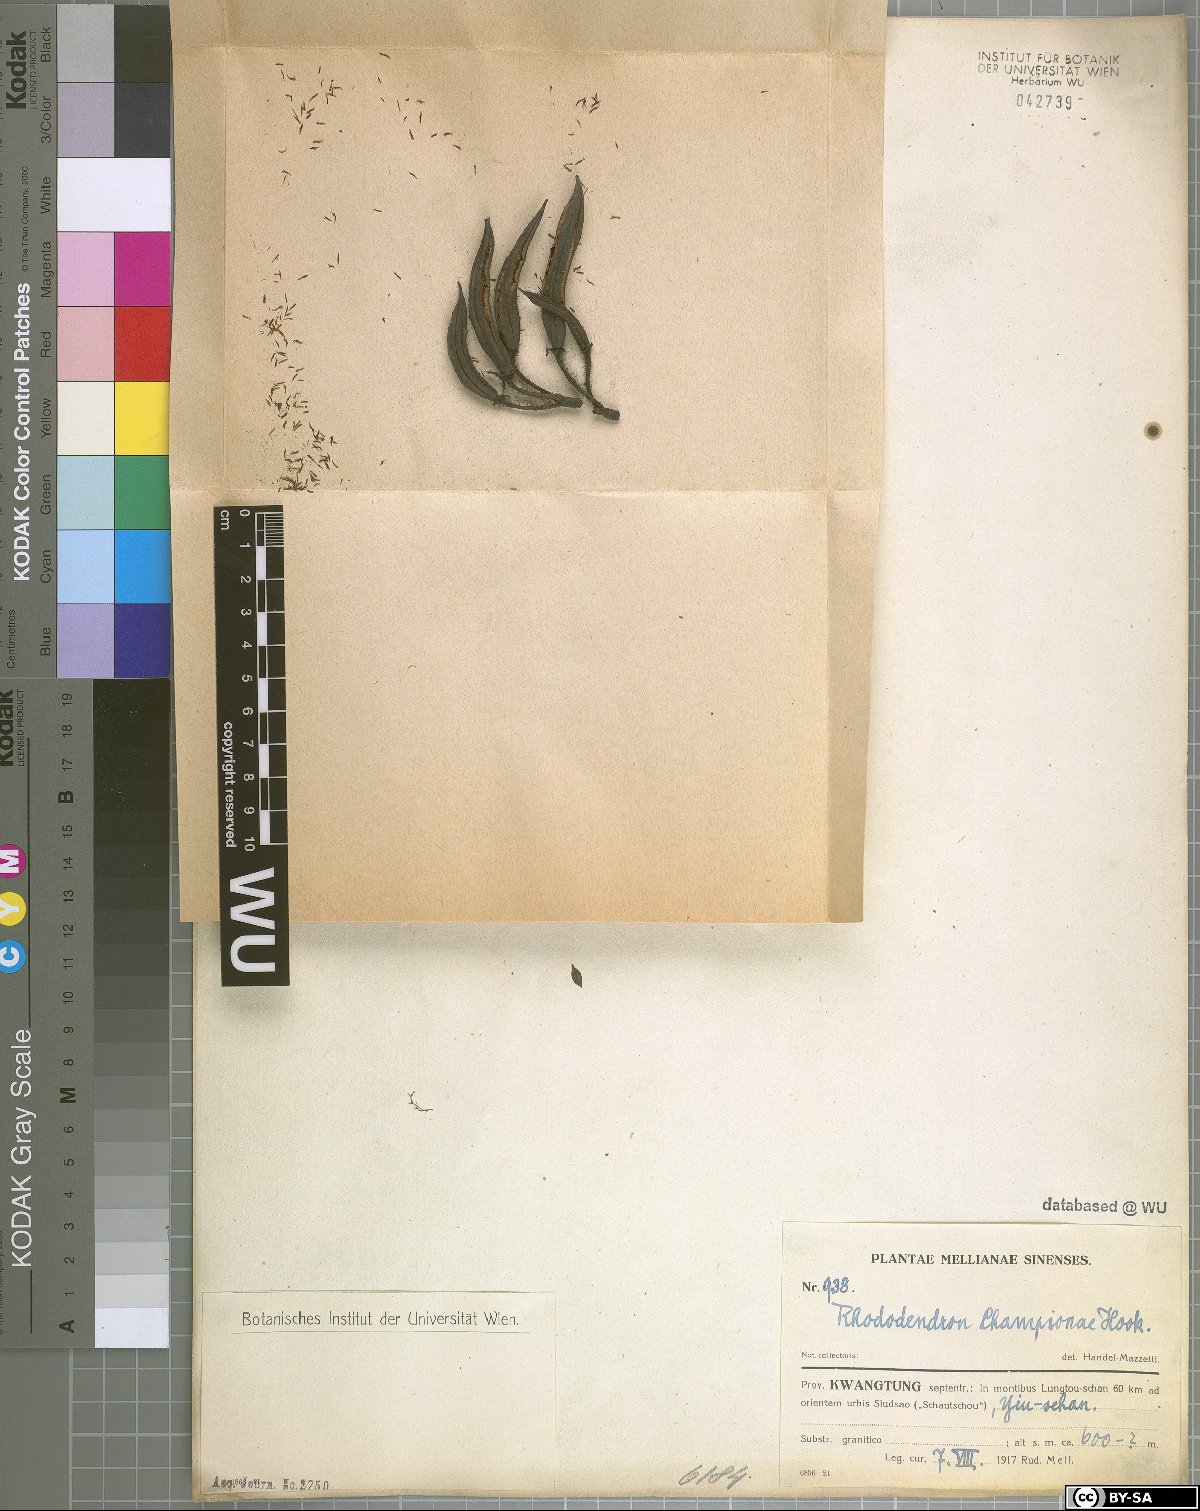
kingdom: Plantae
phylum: Tracheophyta
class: Magnoliopsida
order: Ericales
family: Ericaceae
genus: Rhododendron
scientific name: Rhododendron championiae
